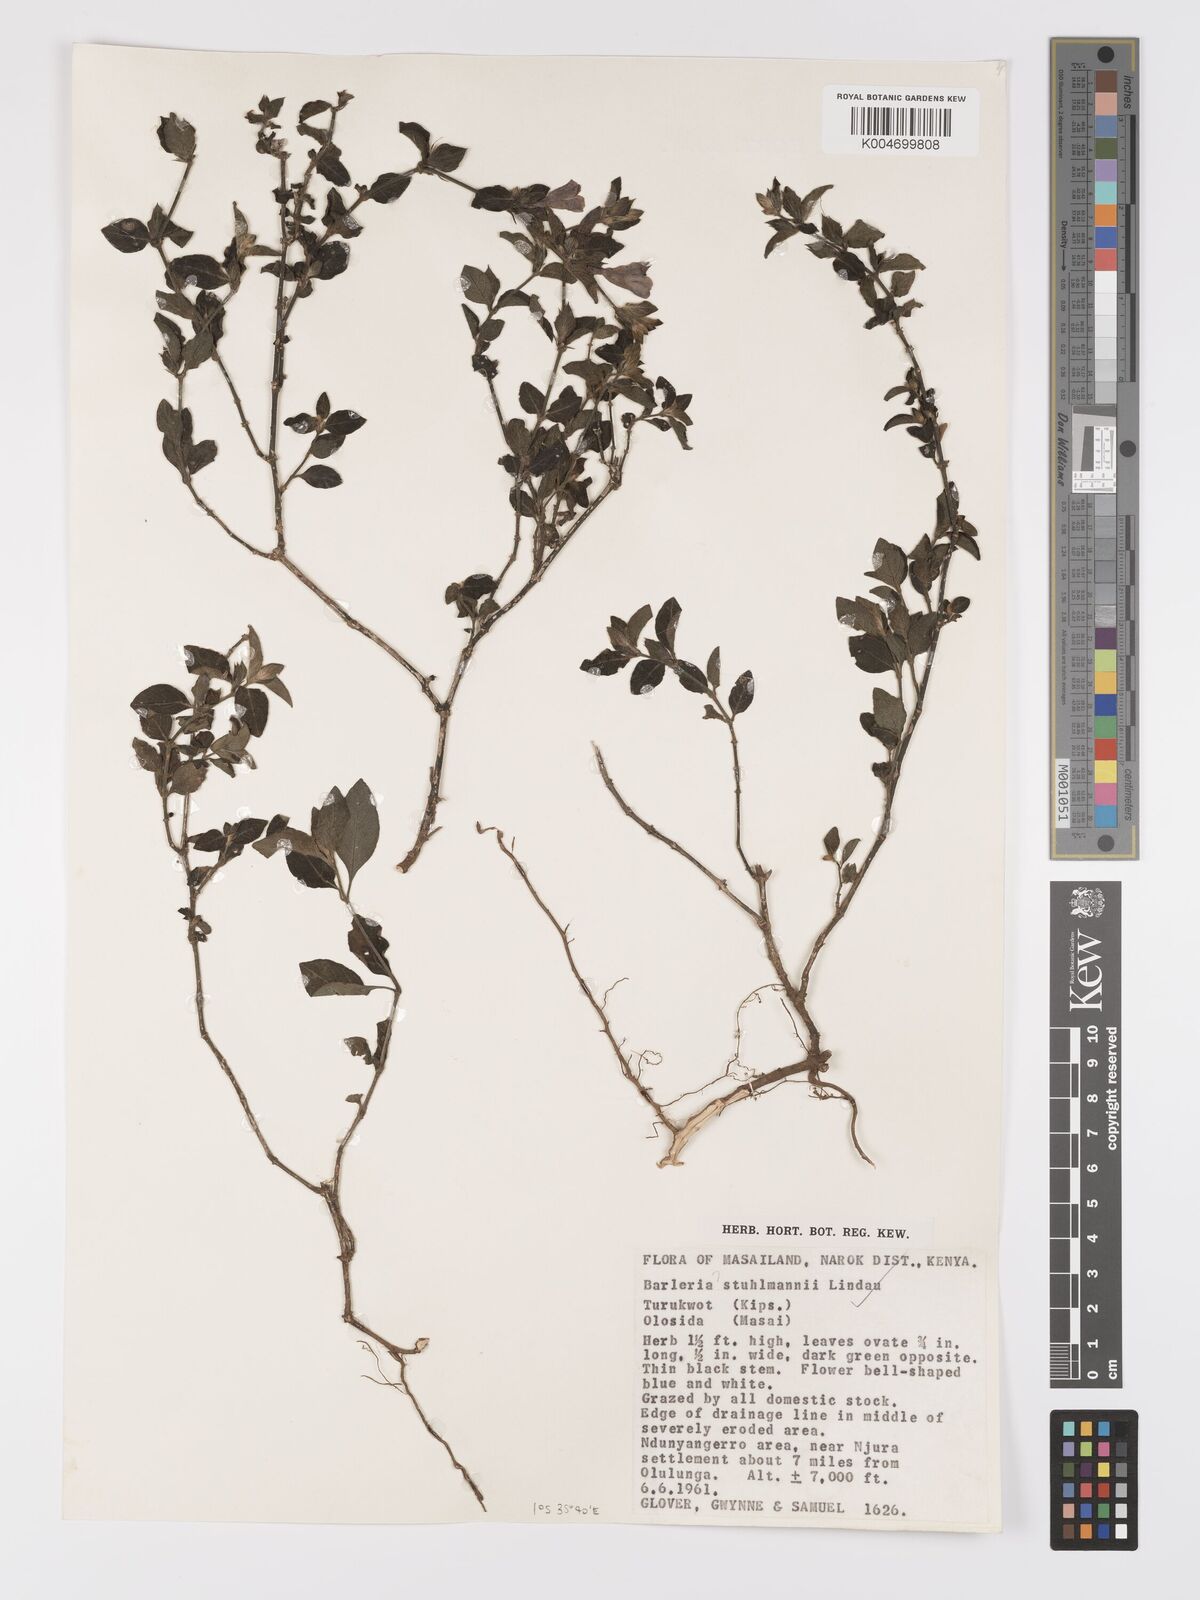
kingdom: Plantae
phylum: Tracheophyta
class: Magnoliopsida
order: Lamiales
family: Acanthaceae
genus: Barleria
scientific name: Barleria ventricosa
